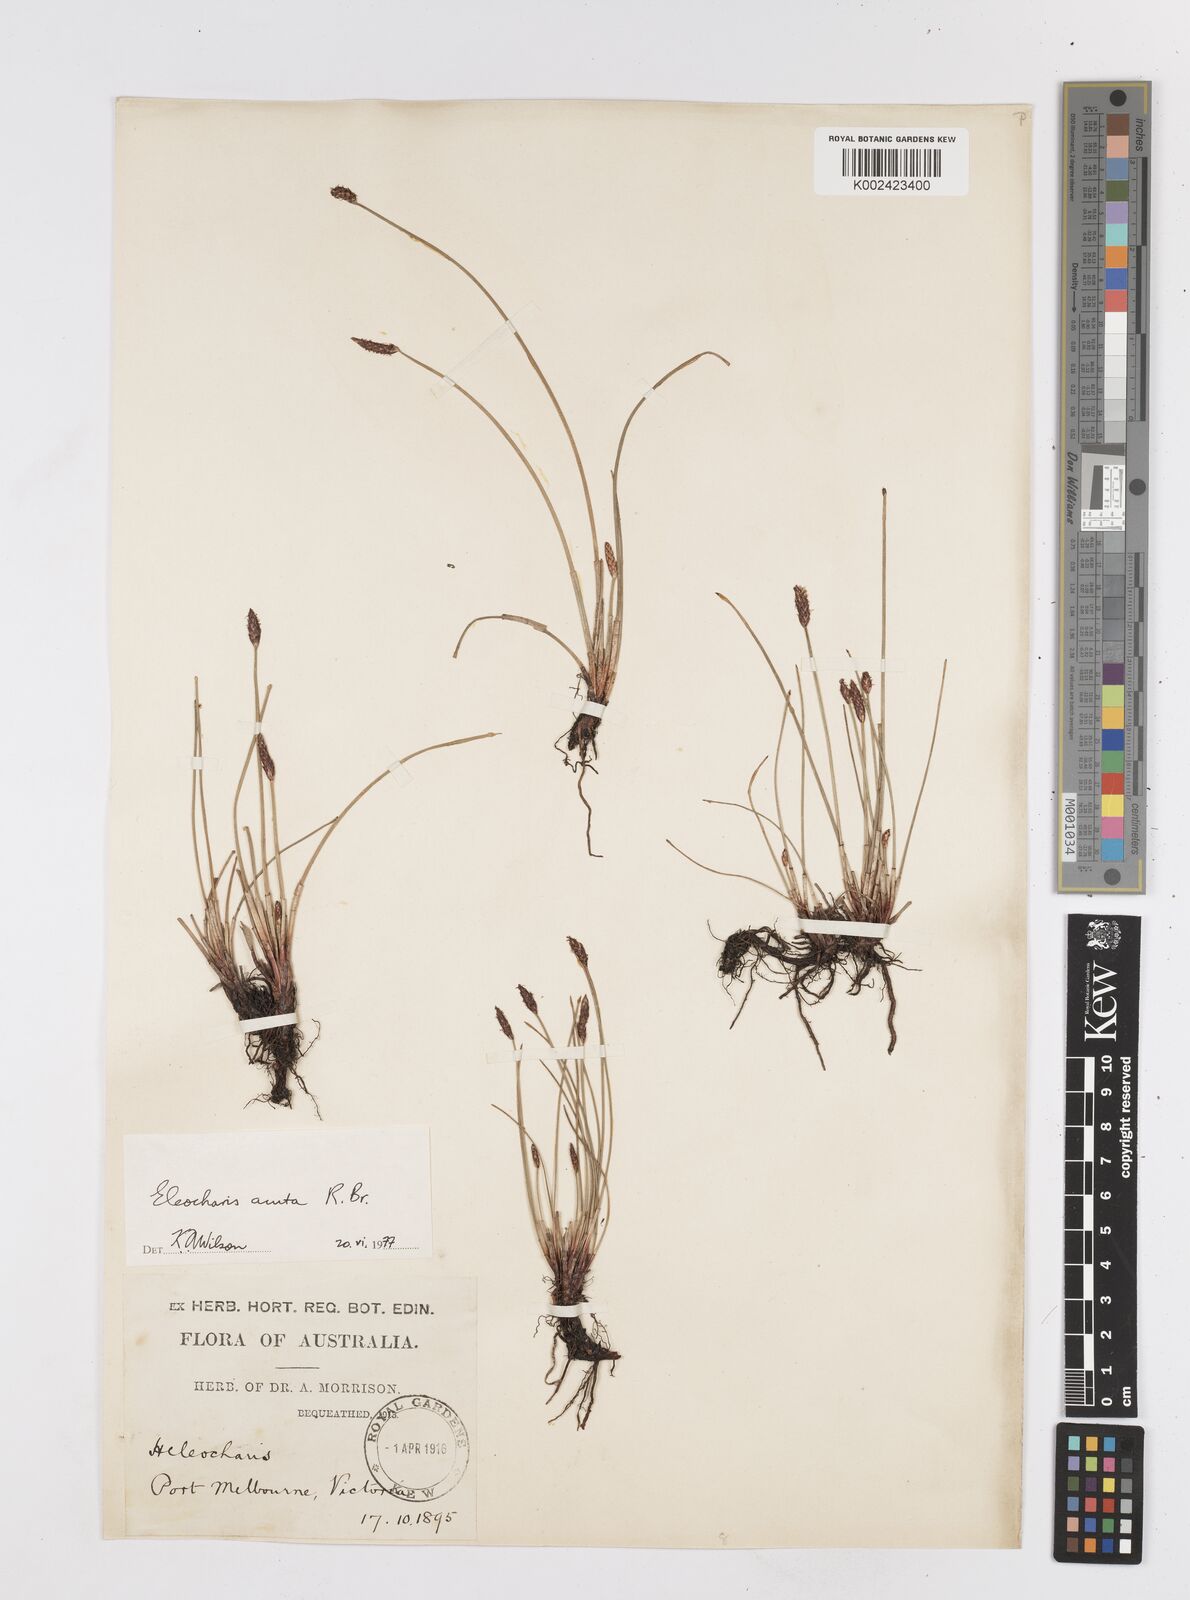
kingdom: Plantae
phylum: Tracheophyta
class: Liliopsida
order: Poales
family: Cyperaceae
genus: Eleocharis
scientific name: Eleocharis acuta
